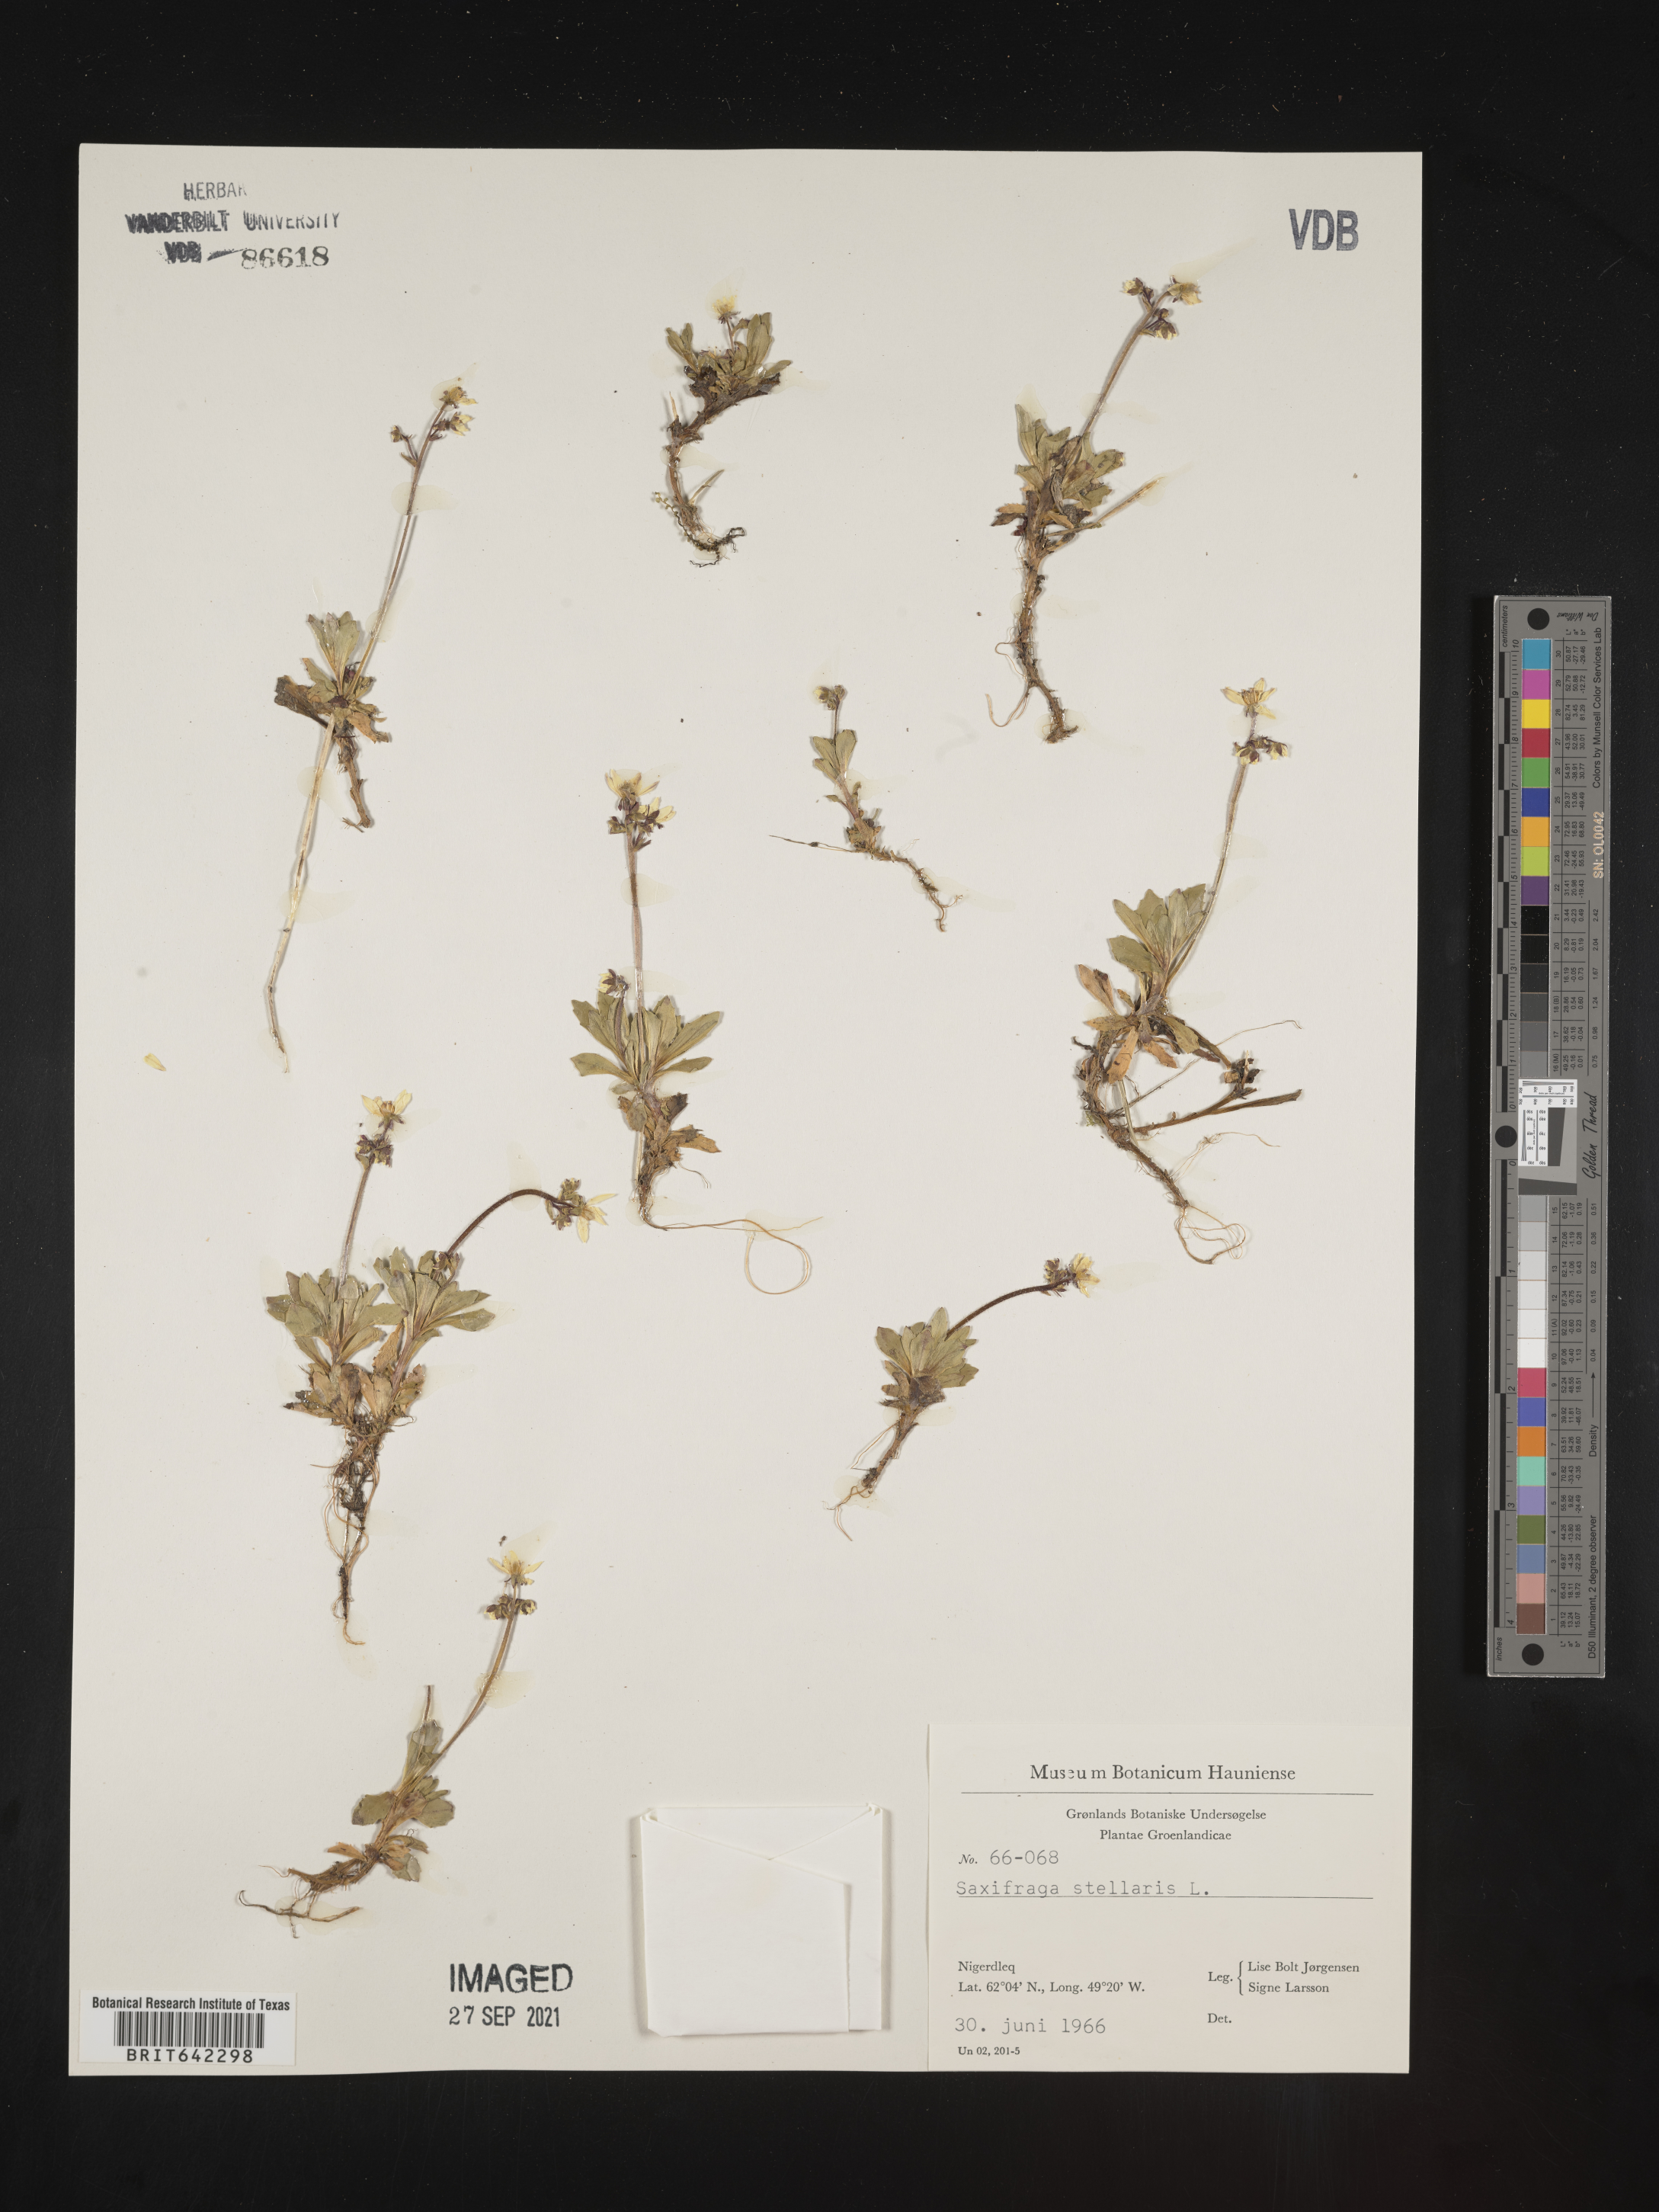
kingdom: Plantae
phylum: Tracheophyta
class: Magnoliopsida
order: Saxifragales
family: Saxifragaceae
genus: Saxifraga
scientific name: Saxifraga
